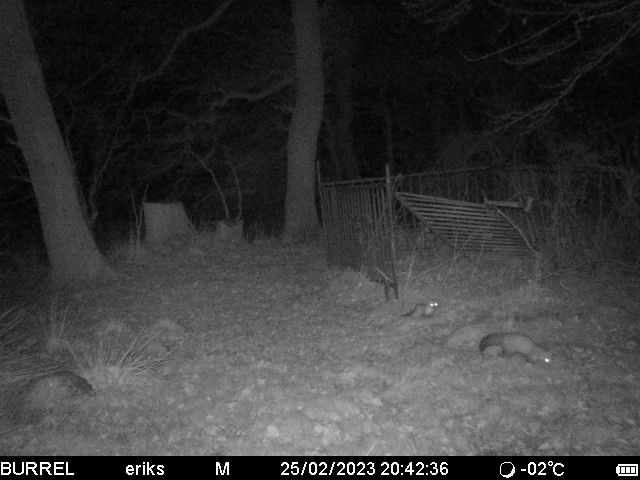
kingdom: Animalia
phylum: Chordata
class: Mammalia
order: Carnivora
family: Mustelidae
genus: Martes
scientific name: Martes foina
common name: Husmår
